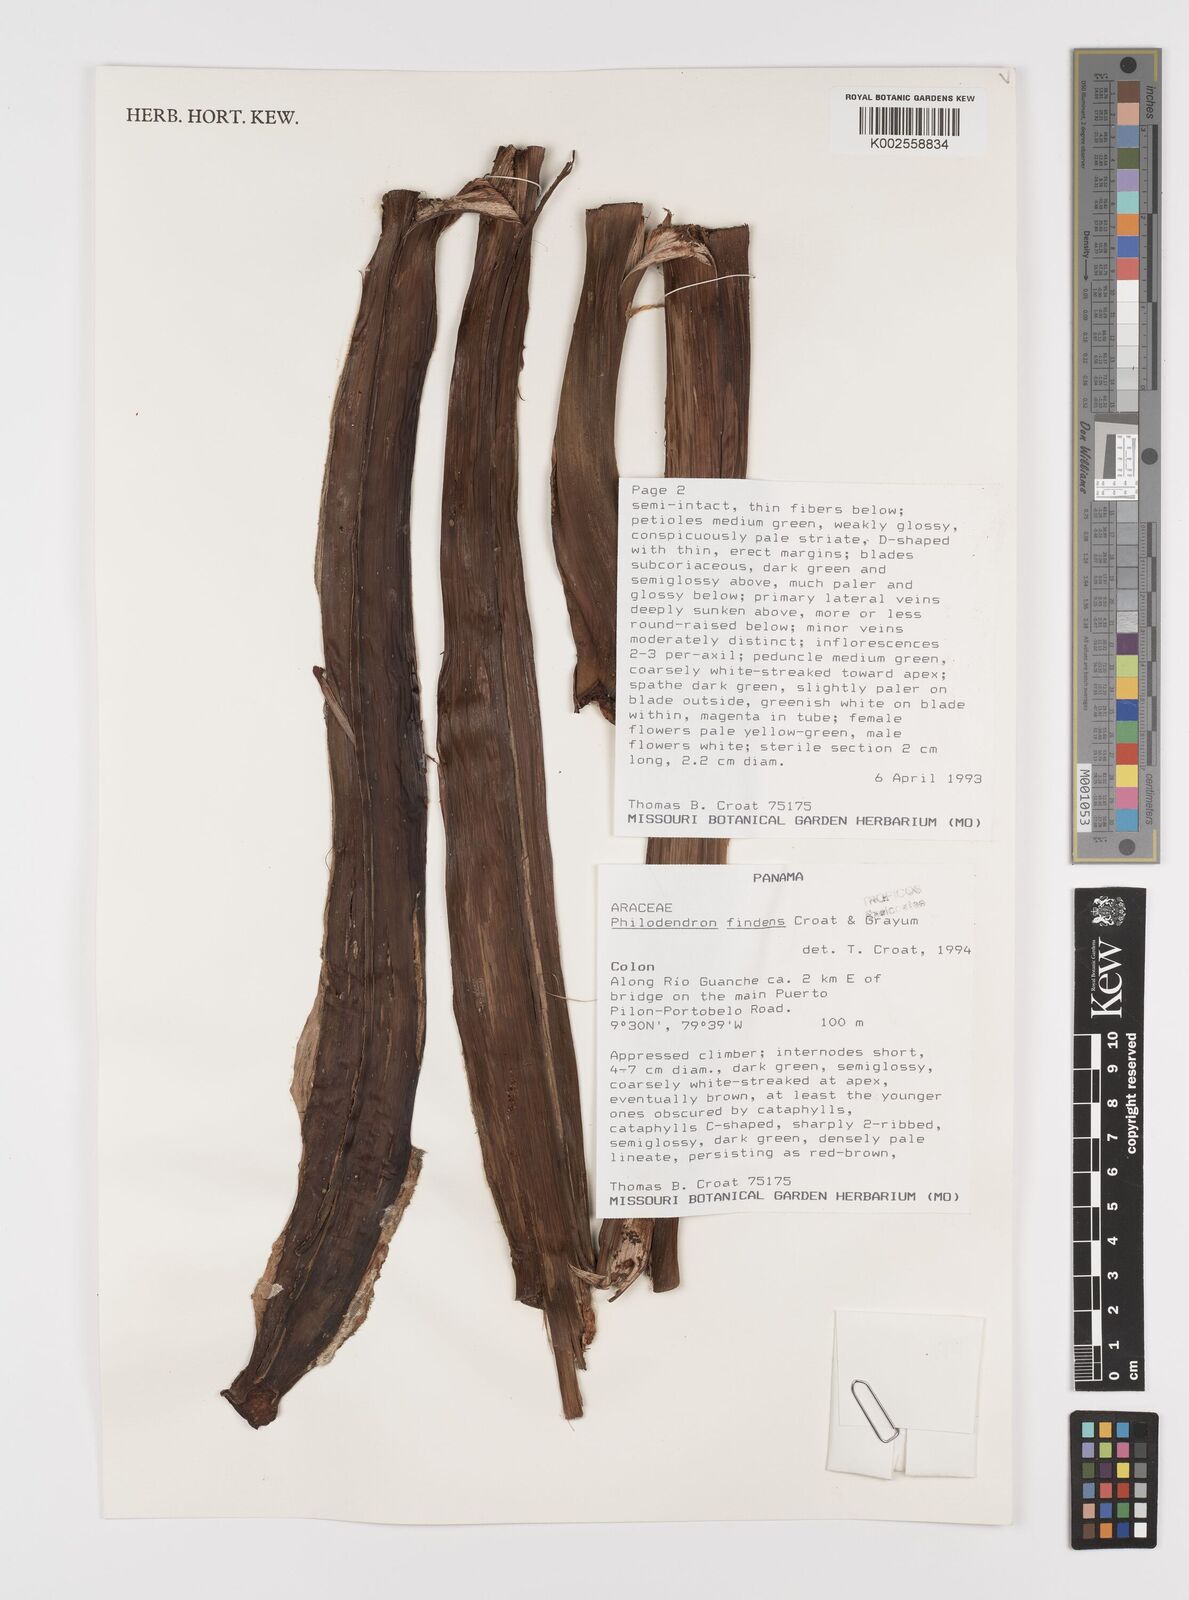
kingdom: Plantae
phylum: Tracheophyta
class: Liliopsida
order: Alismatales
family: Araceae
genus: Philodendron
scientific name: Philodendron findens
